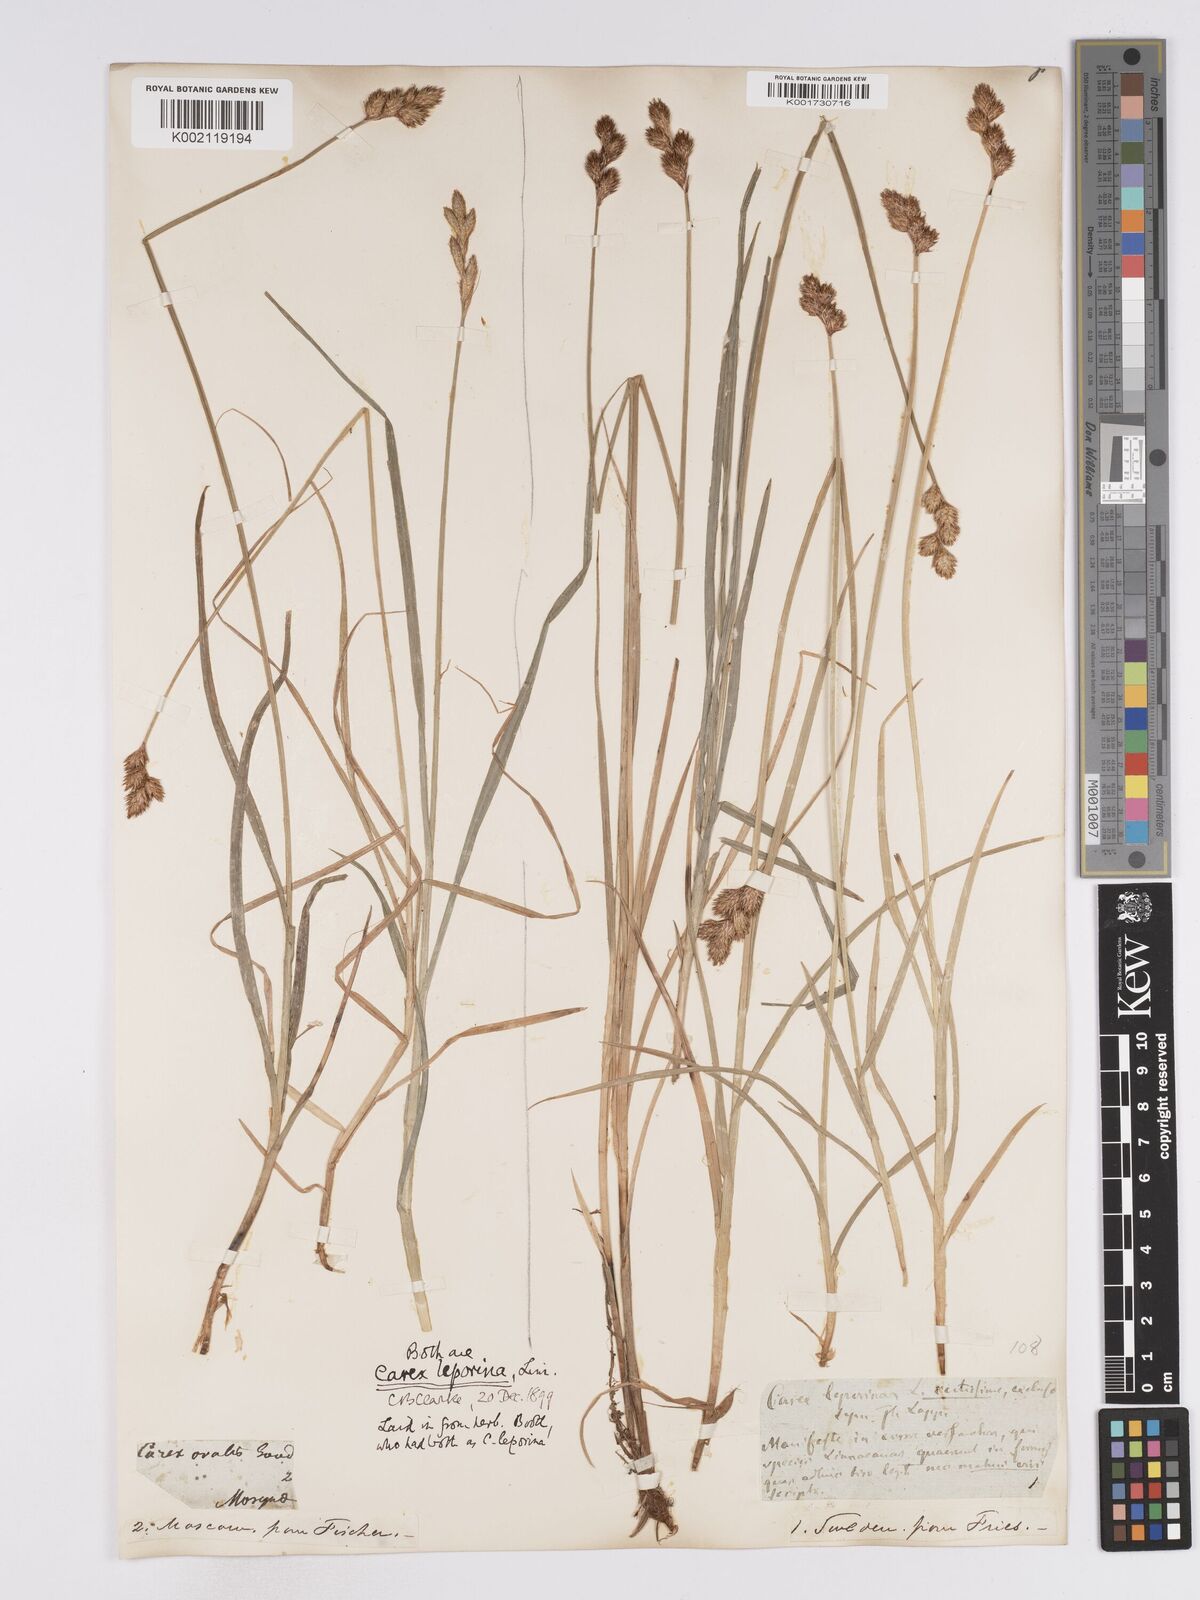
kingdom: Plantae
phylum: Tracheophyta
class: Liliopsida
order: Poales
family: Cyperaceae
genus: Carex
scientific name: Carex leporina
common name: Oval sedge
